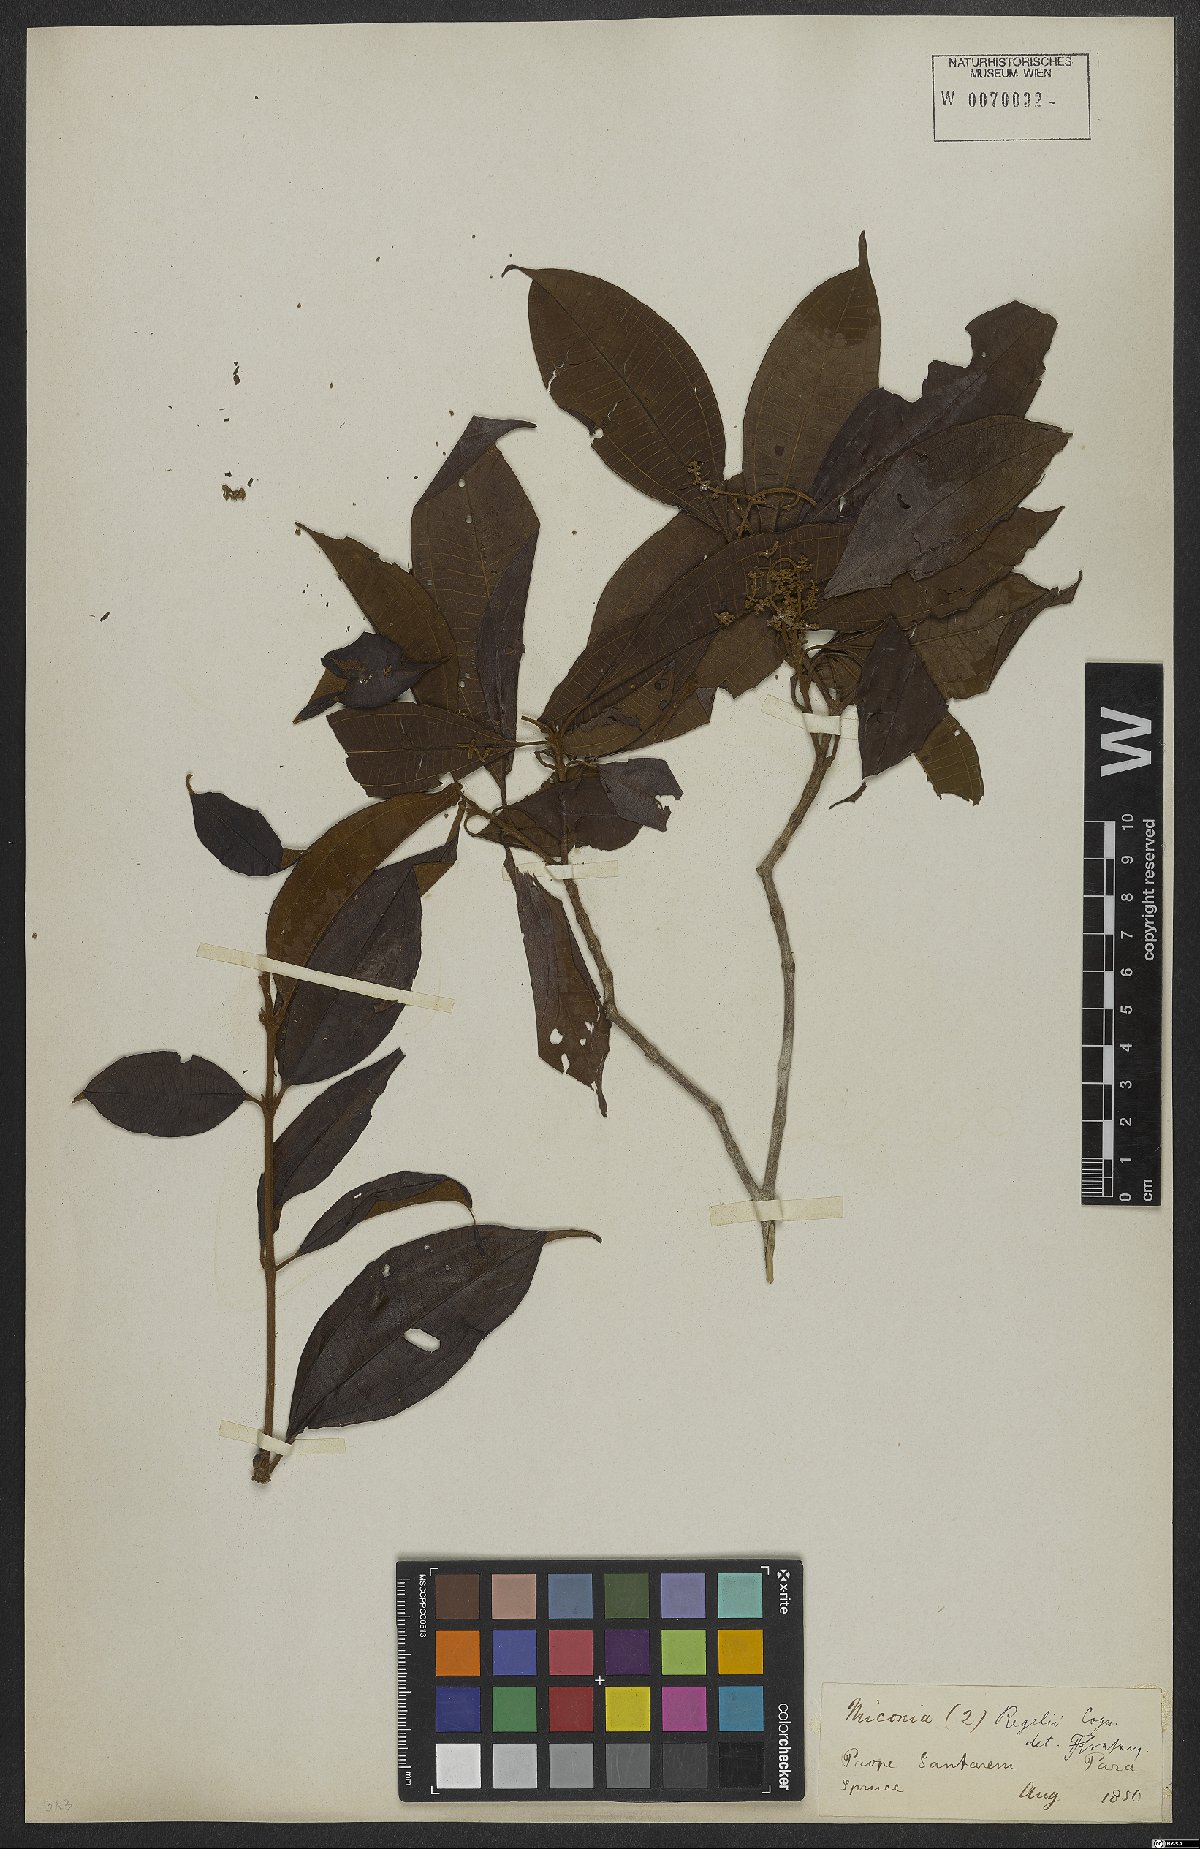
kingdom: Plantae
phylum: Tracheophyta
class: Magnoliopsida
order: Myrtales
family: Melastomataceae
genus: Miconia
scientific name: Miconia regelii
